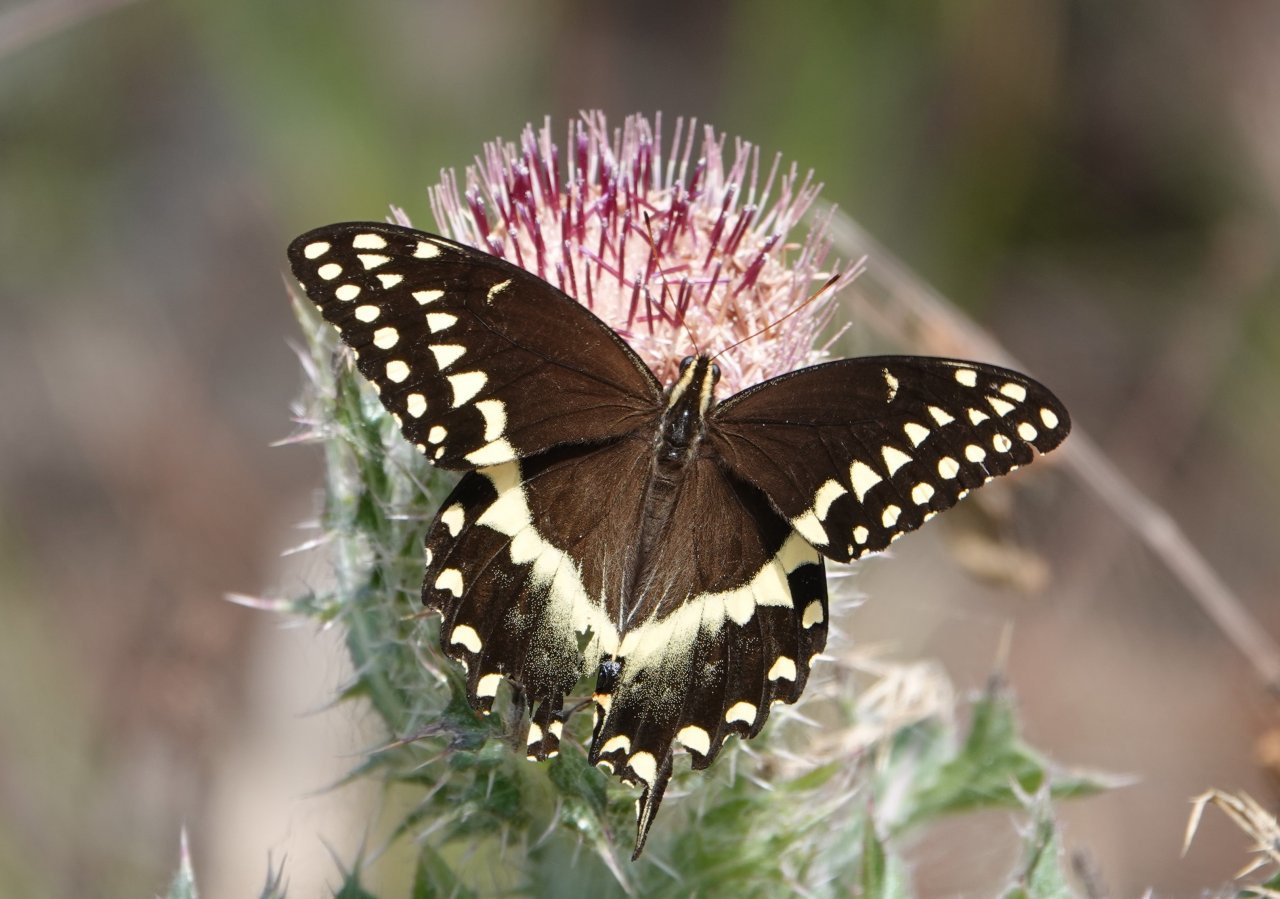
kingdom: Animalia
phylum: Arthropoda
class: Insecta
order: Lepidoptera
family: Papilionidae
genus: Pterourus
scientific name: Pterourus palamedes
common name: Palamedes Swallowtail
